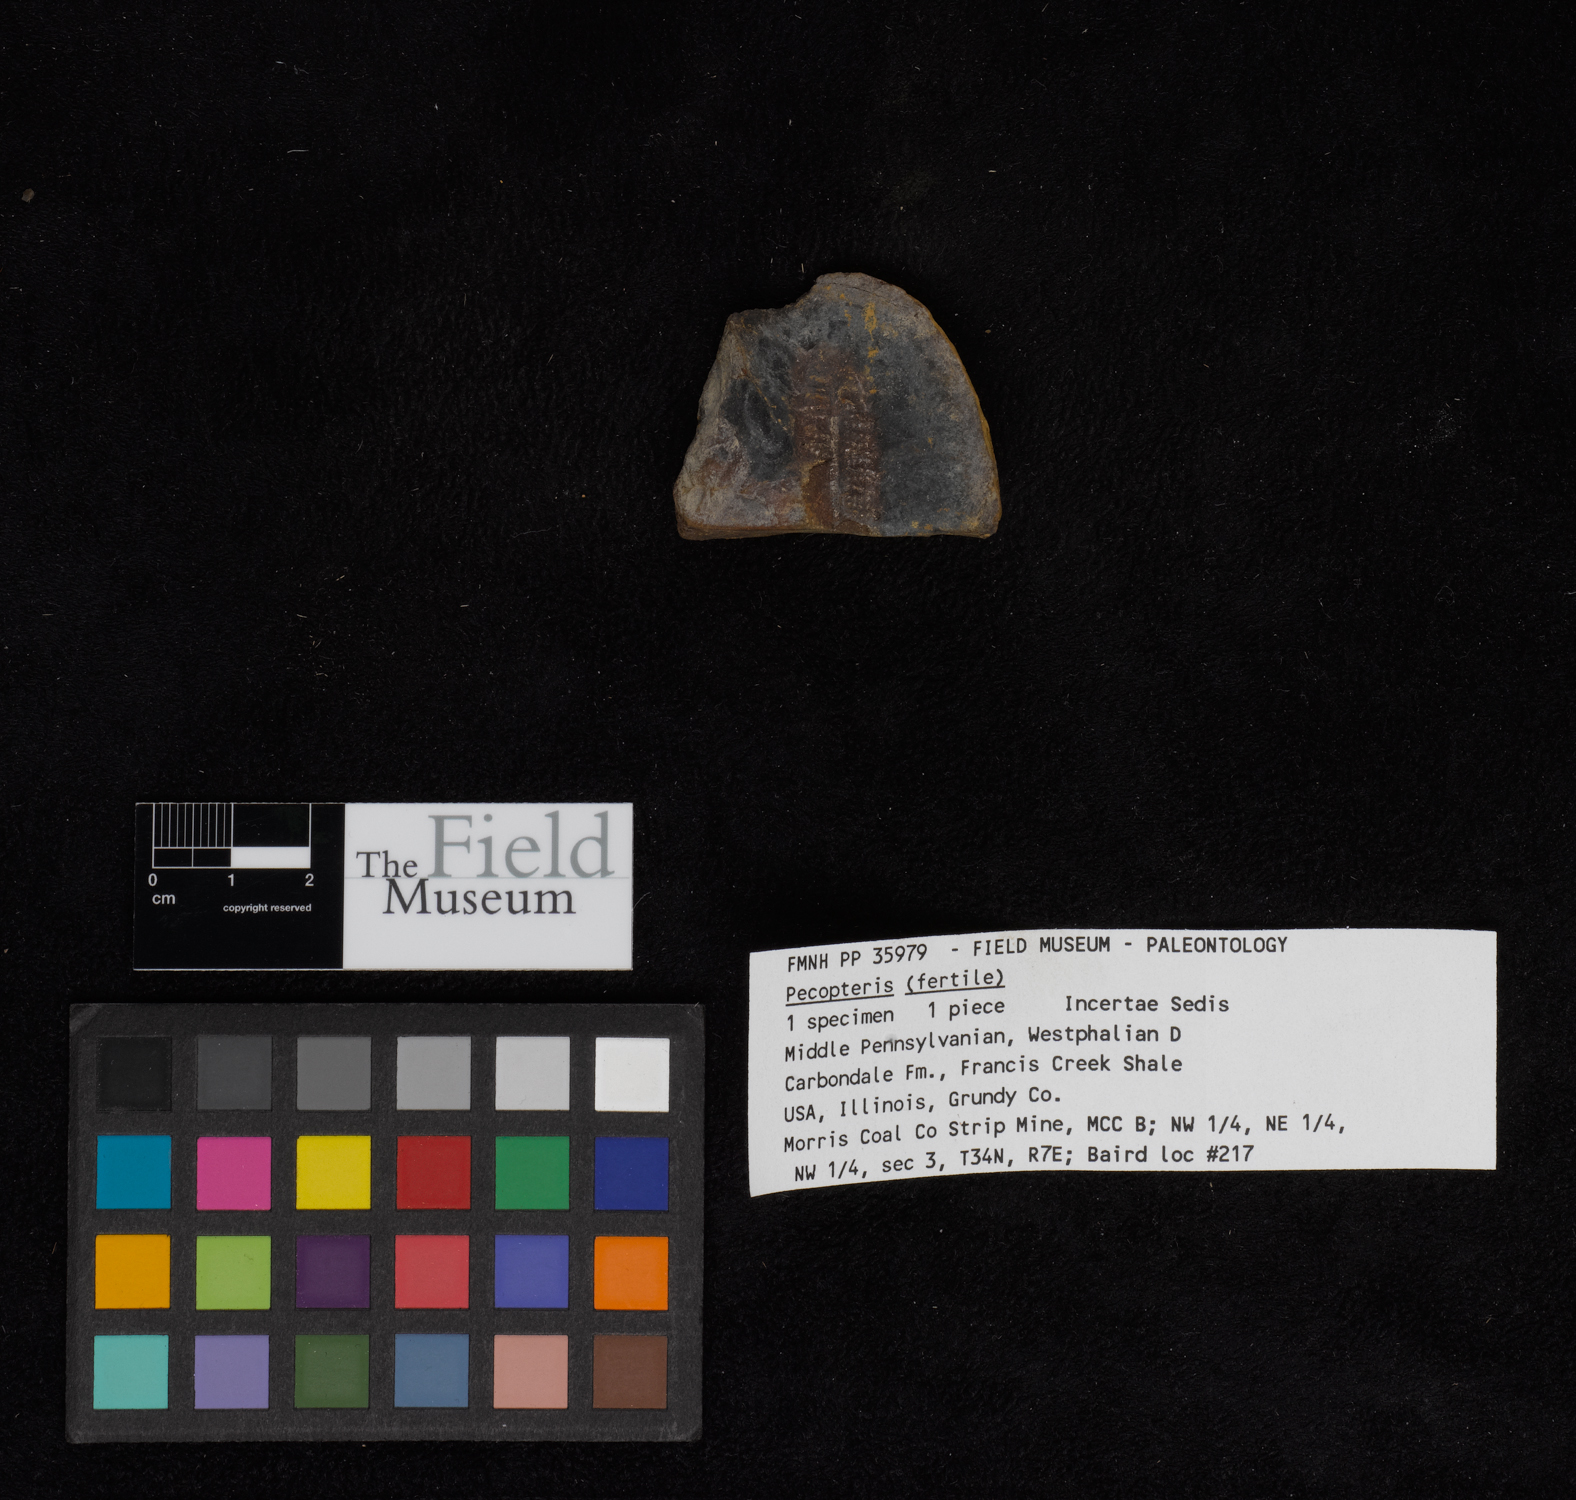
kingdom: Plantae
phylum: Tracheophyta
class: Polypodiopsida
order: Marattiales
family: Asterothecaceae
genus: Pecopteris
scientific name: Pecopteris
